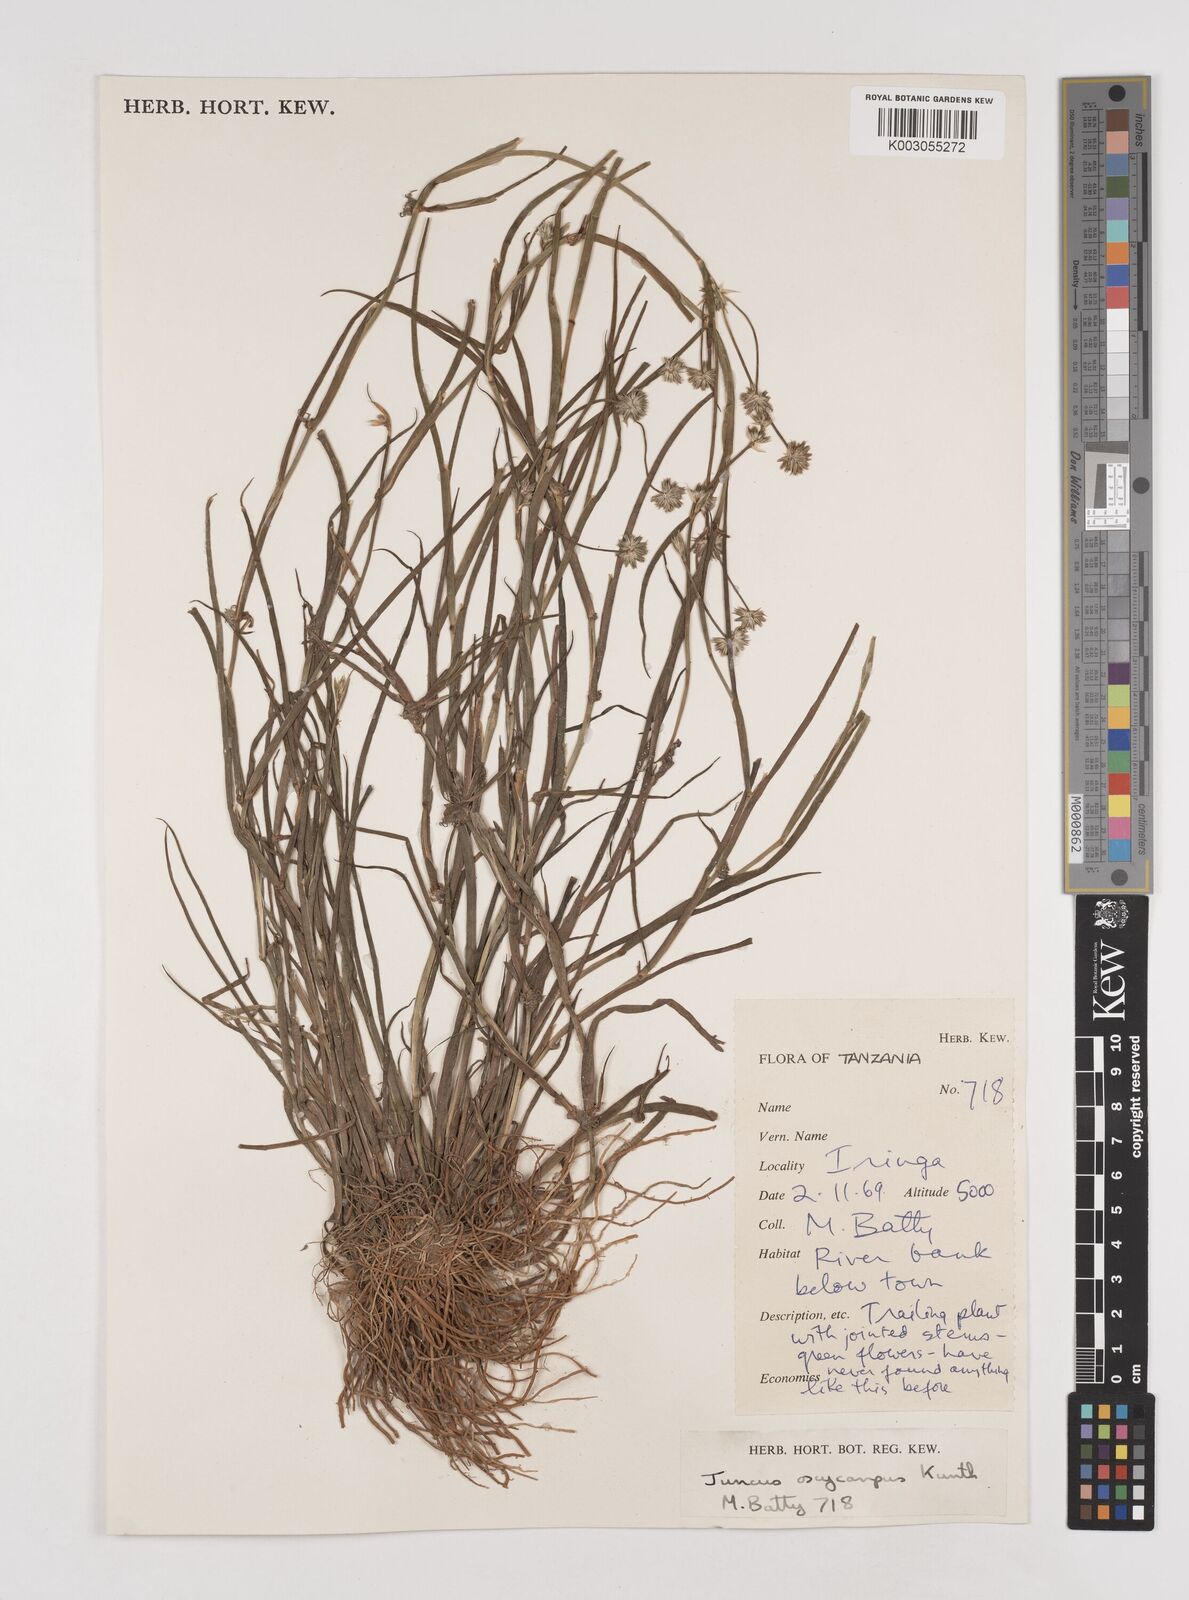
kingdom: Plantae
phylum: Tracheophyta
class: Liliopsida
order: Poales
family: Juncaceae
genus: Juncus
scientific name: Juncus oxycarpus
